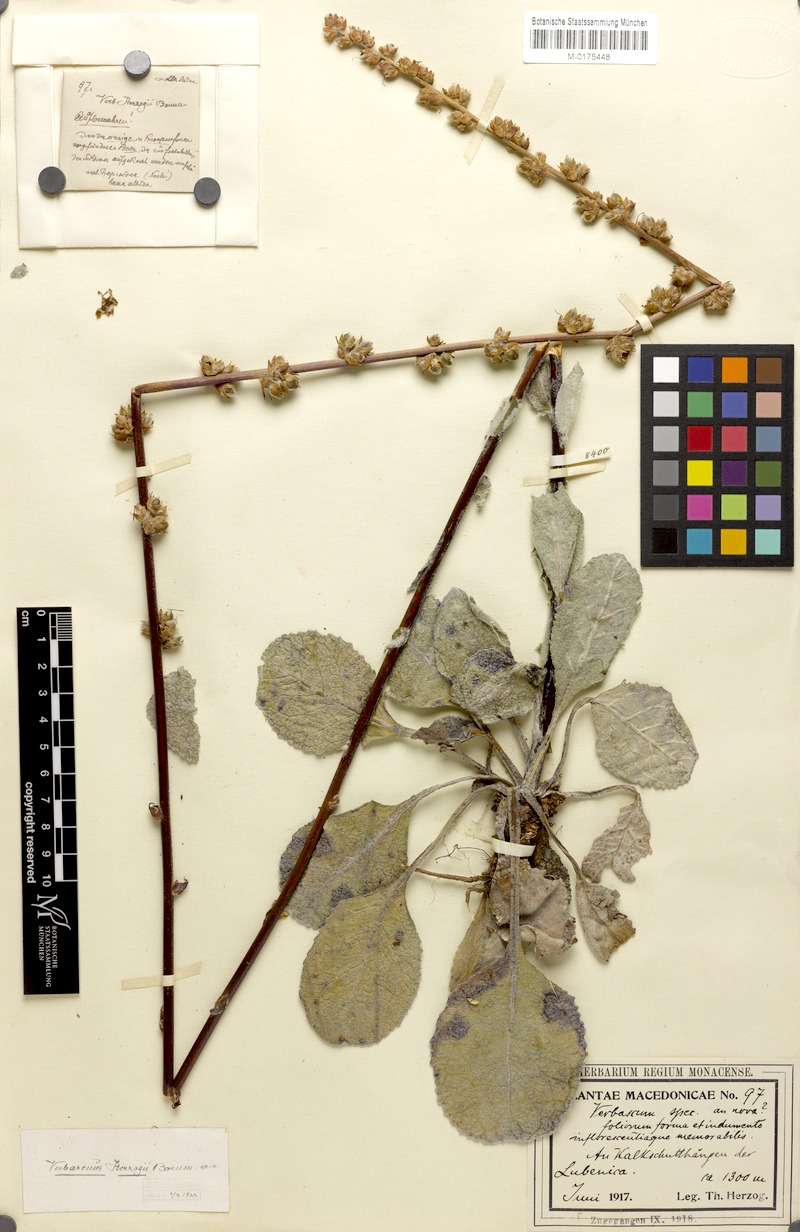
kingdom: Plantae
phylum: Tracheophyta
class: Magnoliopsida
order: Lamiales
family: Scrophulariaceae
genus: Verbascum
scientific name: Verbascum herzogii
